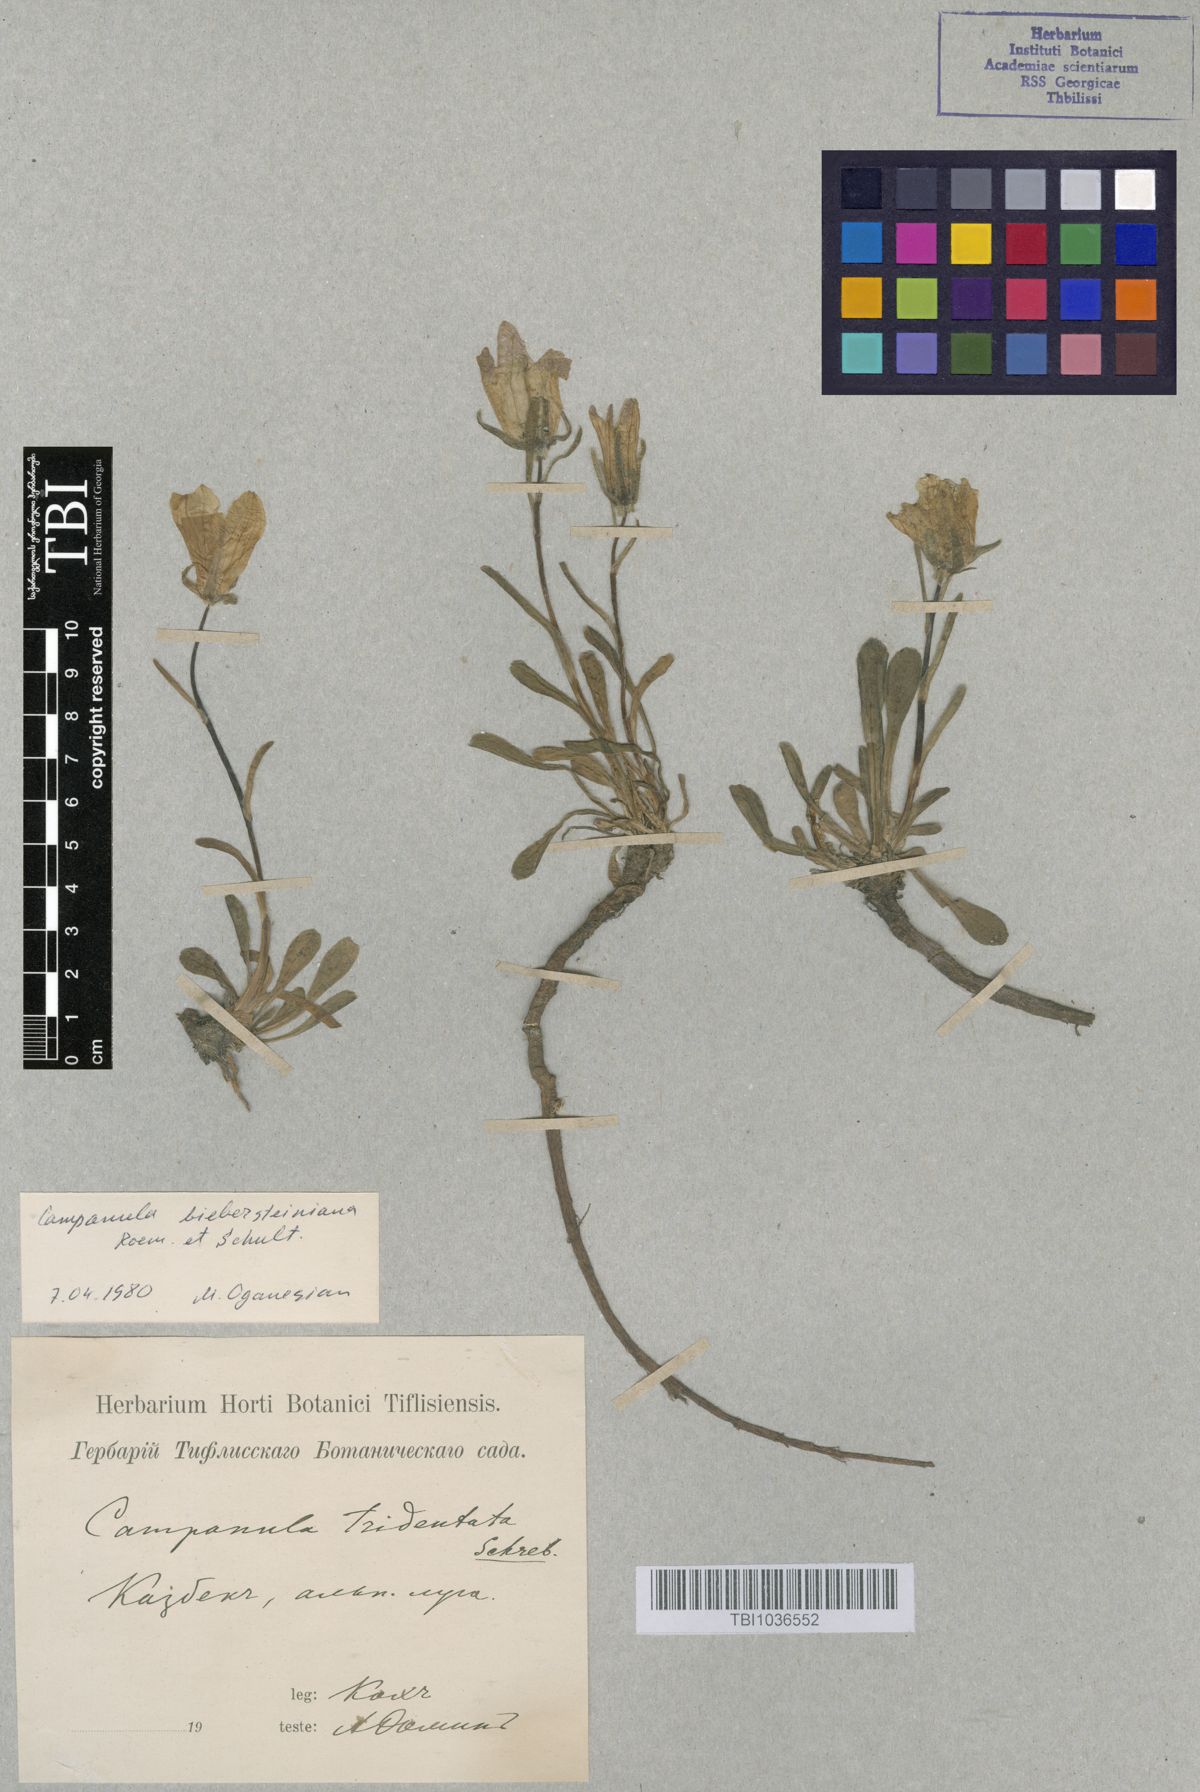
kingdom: Plantae
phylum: Tracheophyta
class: Magnoliopsida
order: Asterales
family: Campanulaceae
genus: Campanula
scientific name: Campanula tridentata
